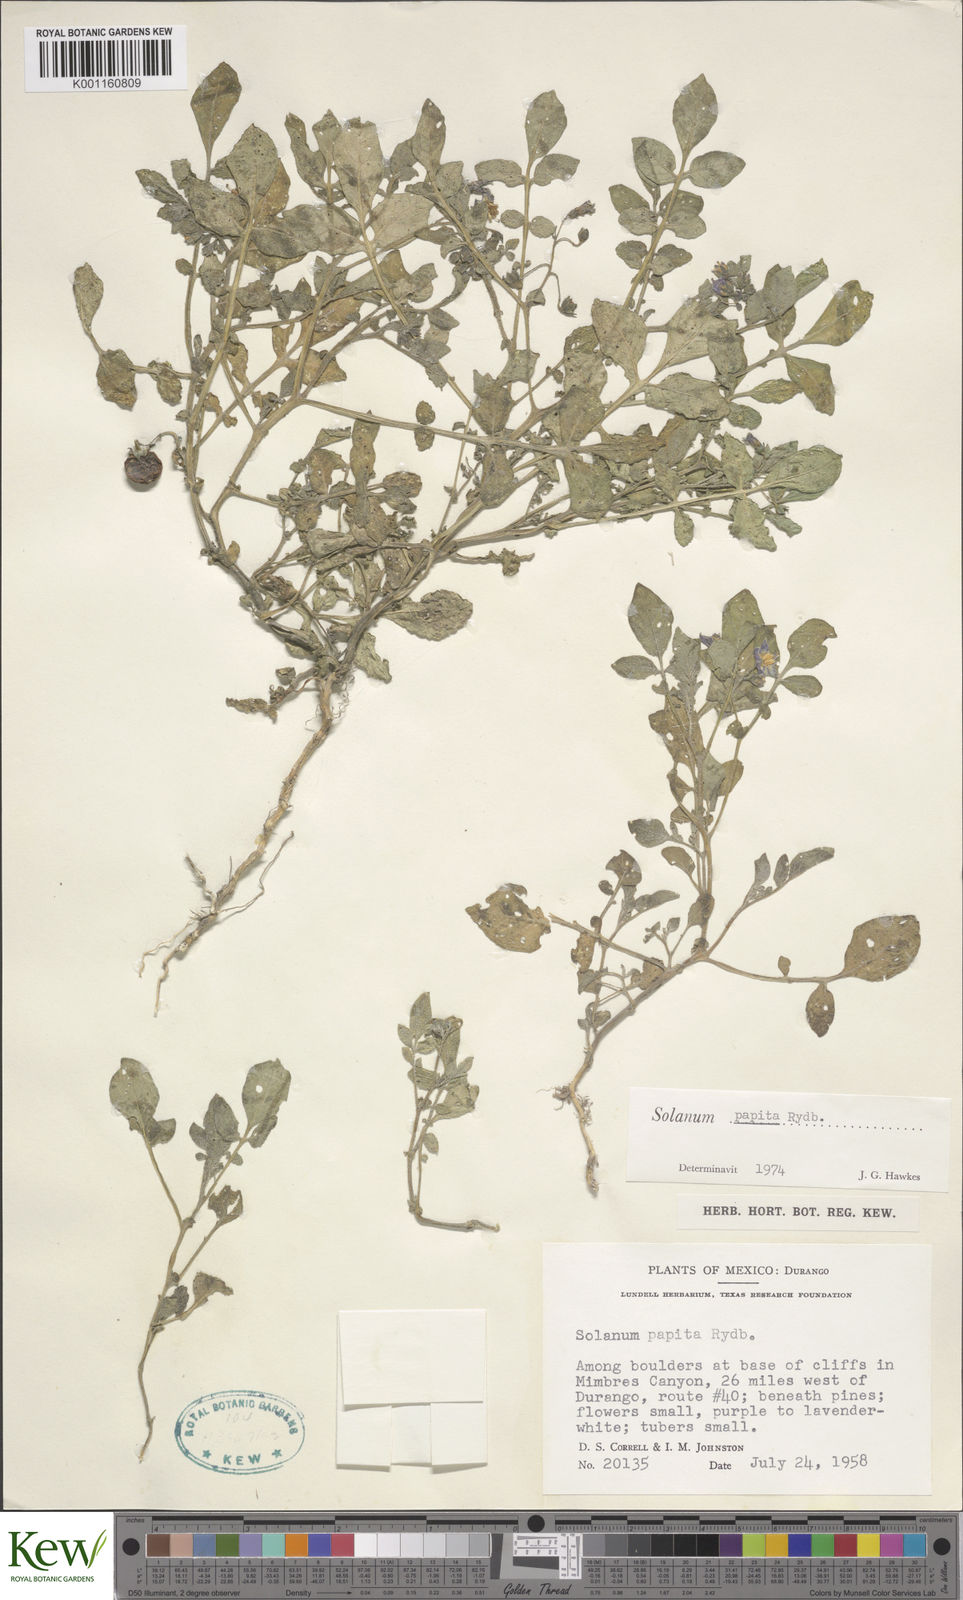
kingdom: Plantae
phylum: Tracheophyta
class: Magnoliopsida
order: Solanales
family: Solanaceae
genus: Solanum
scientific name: Solanum stoloniferum
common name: Fendler's nighshade
